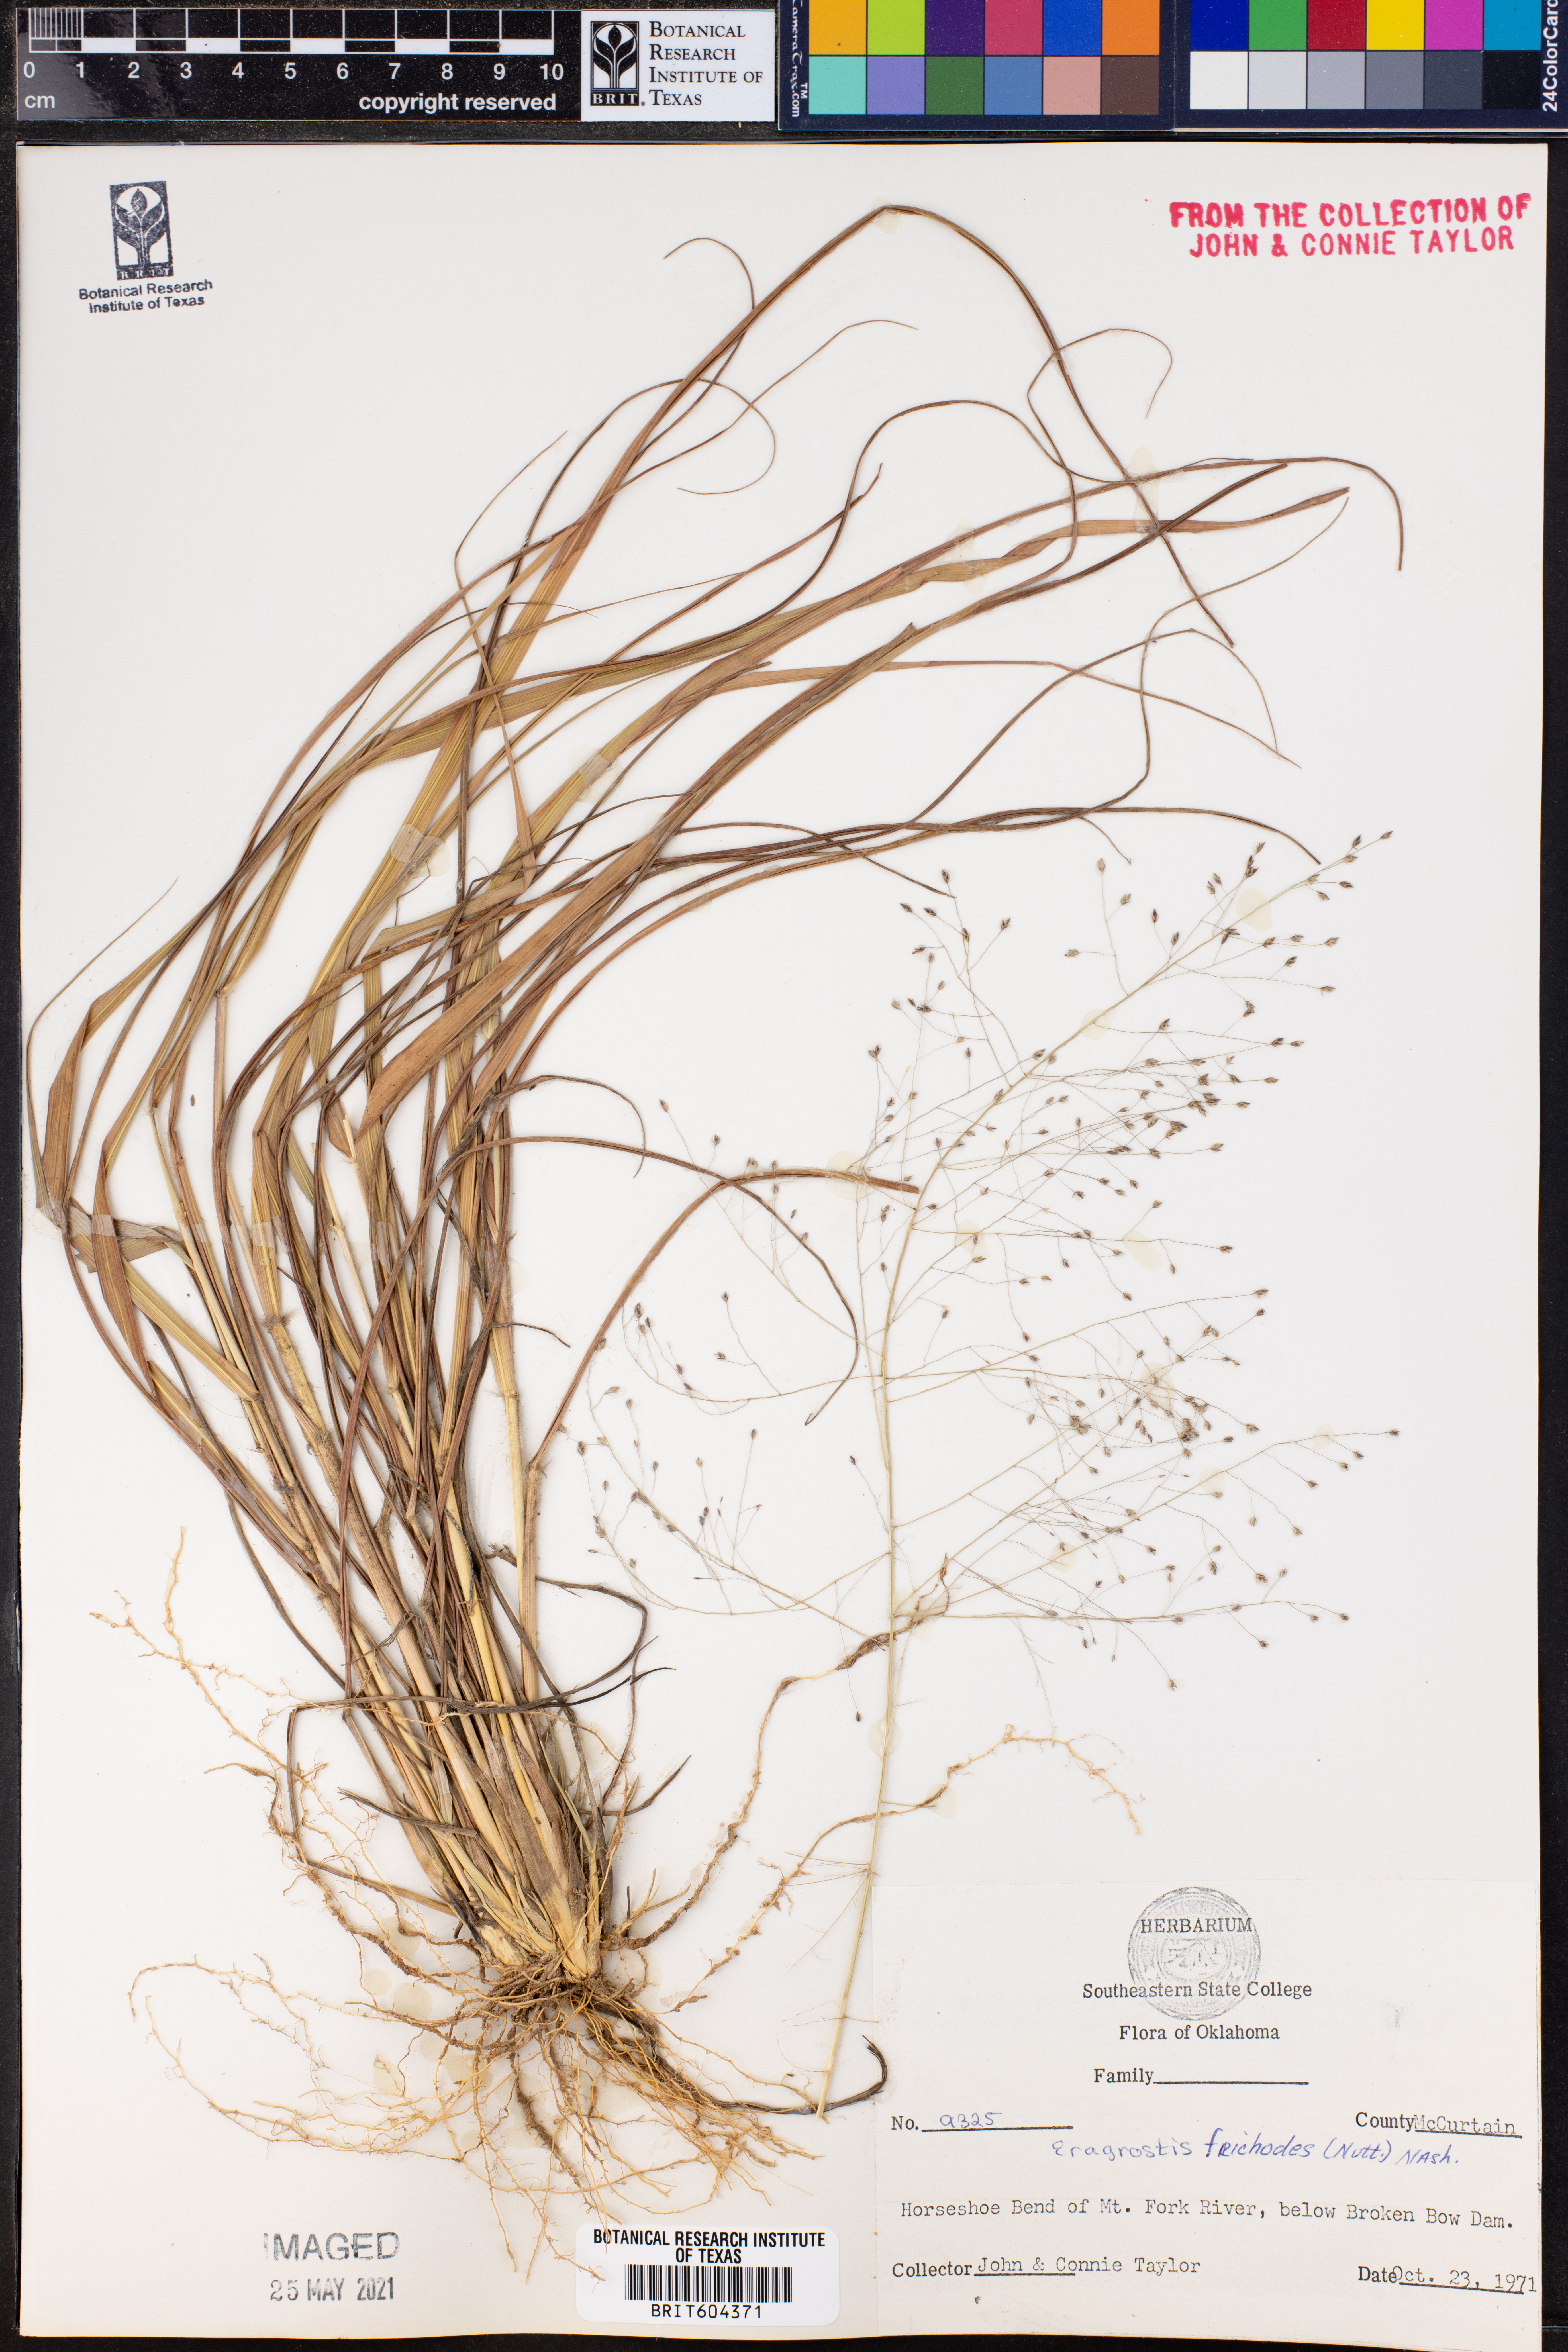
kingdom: Plantae
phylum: Tracheophyta
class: Liliopsida
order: Poales
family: Poaceae
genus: Eragrostis
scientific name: Eragrostis trichodes
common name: Sand love grass
